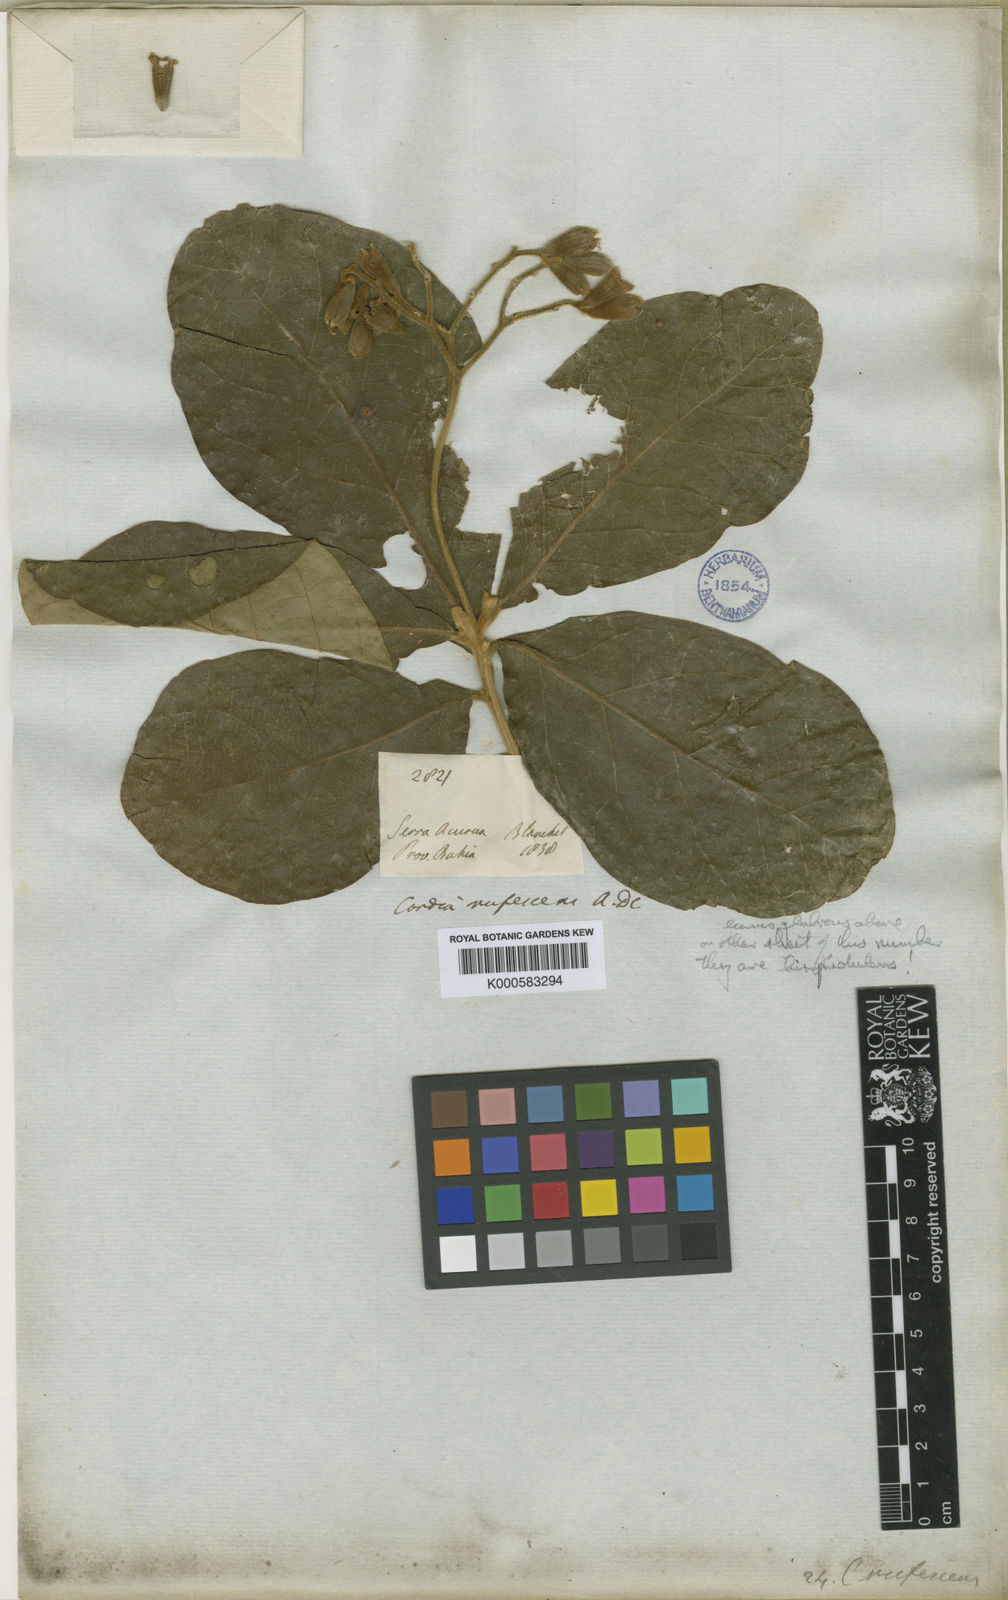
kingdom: Plantae
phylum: Tracheophyta
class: Magnoliopsida
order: Boraginales
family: Cordiaceae
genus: Cordia
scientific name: Cordia rufescens
